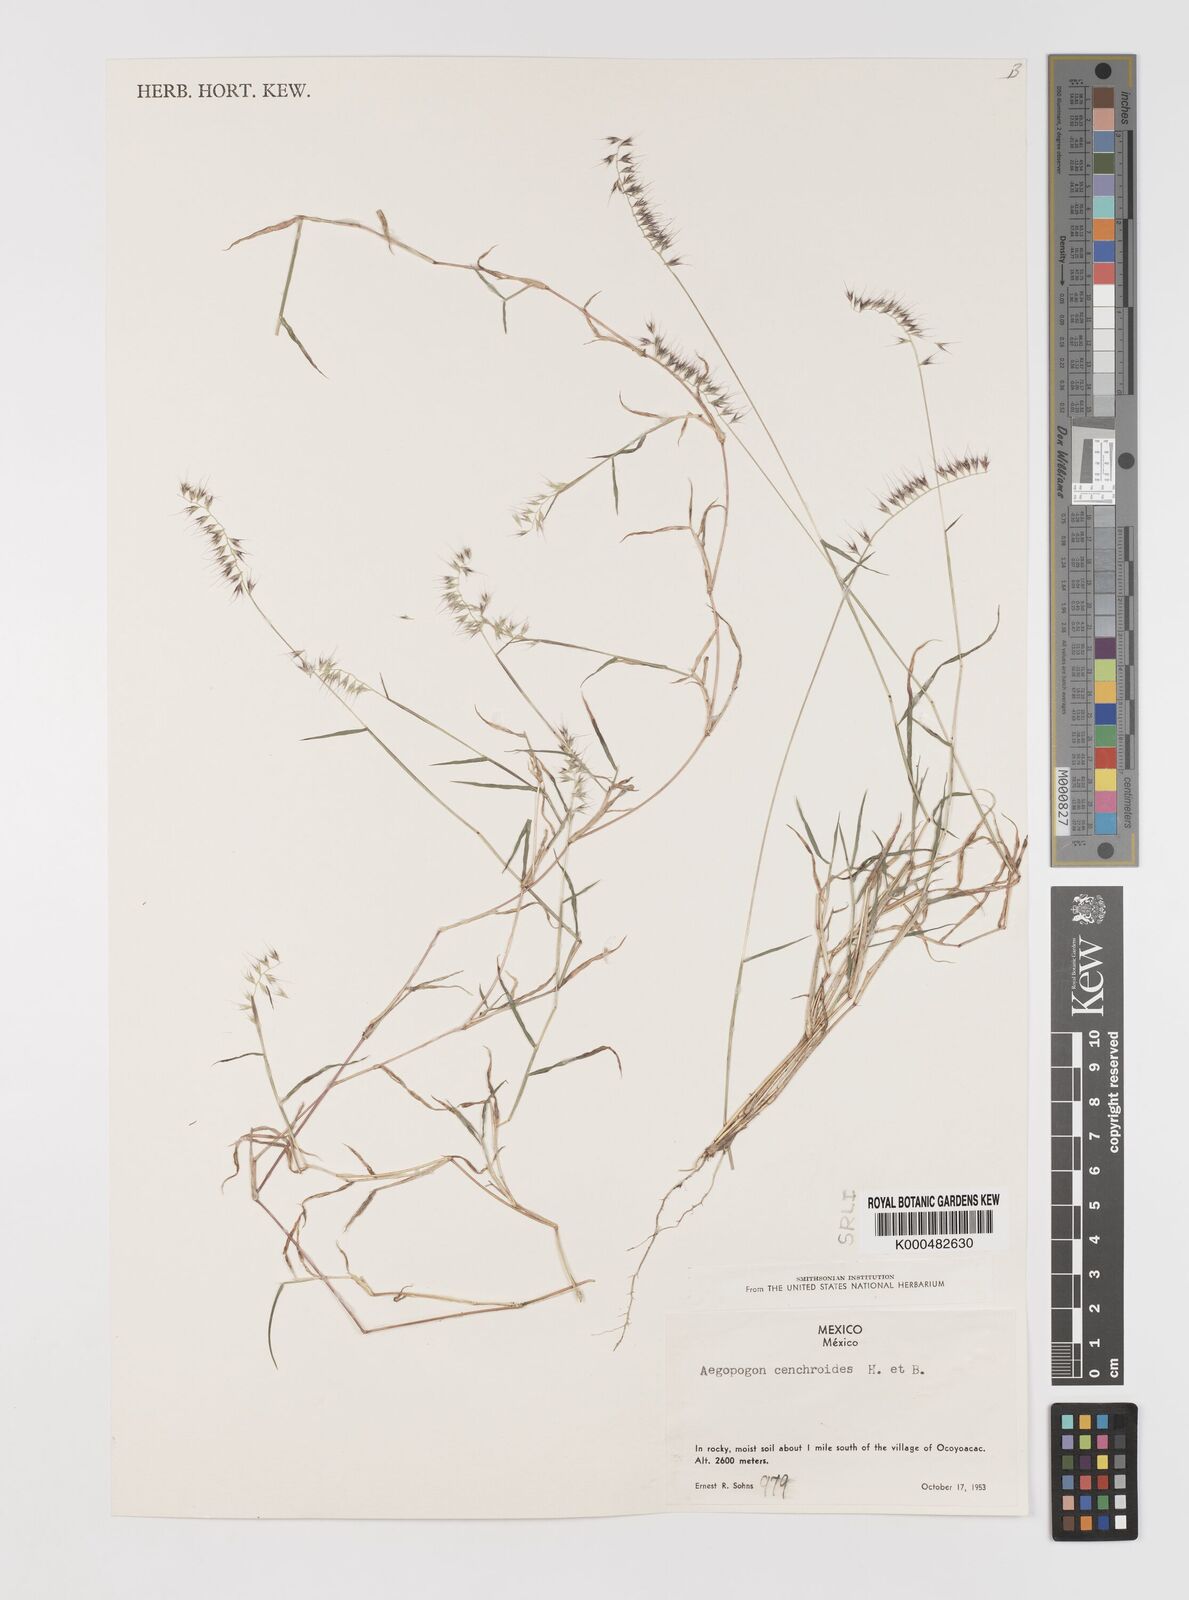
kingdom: Plantae
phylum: Tracheophyta
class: Liliopsida
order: Poales
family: Poaceae
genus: Muhlenbergia
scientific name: Muhlenbergia
